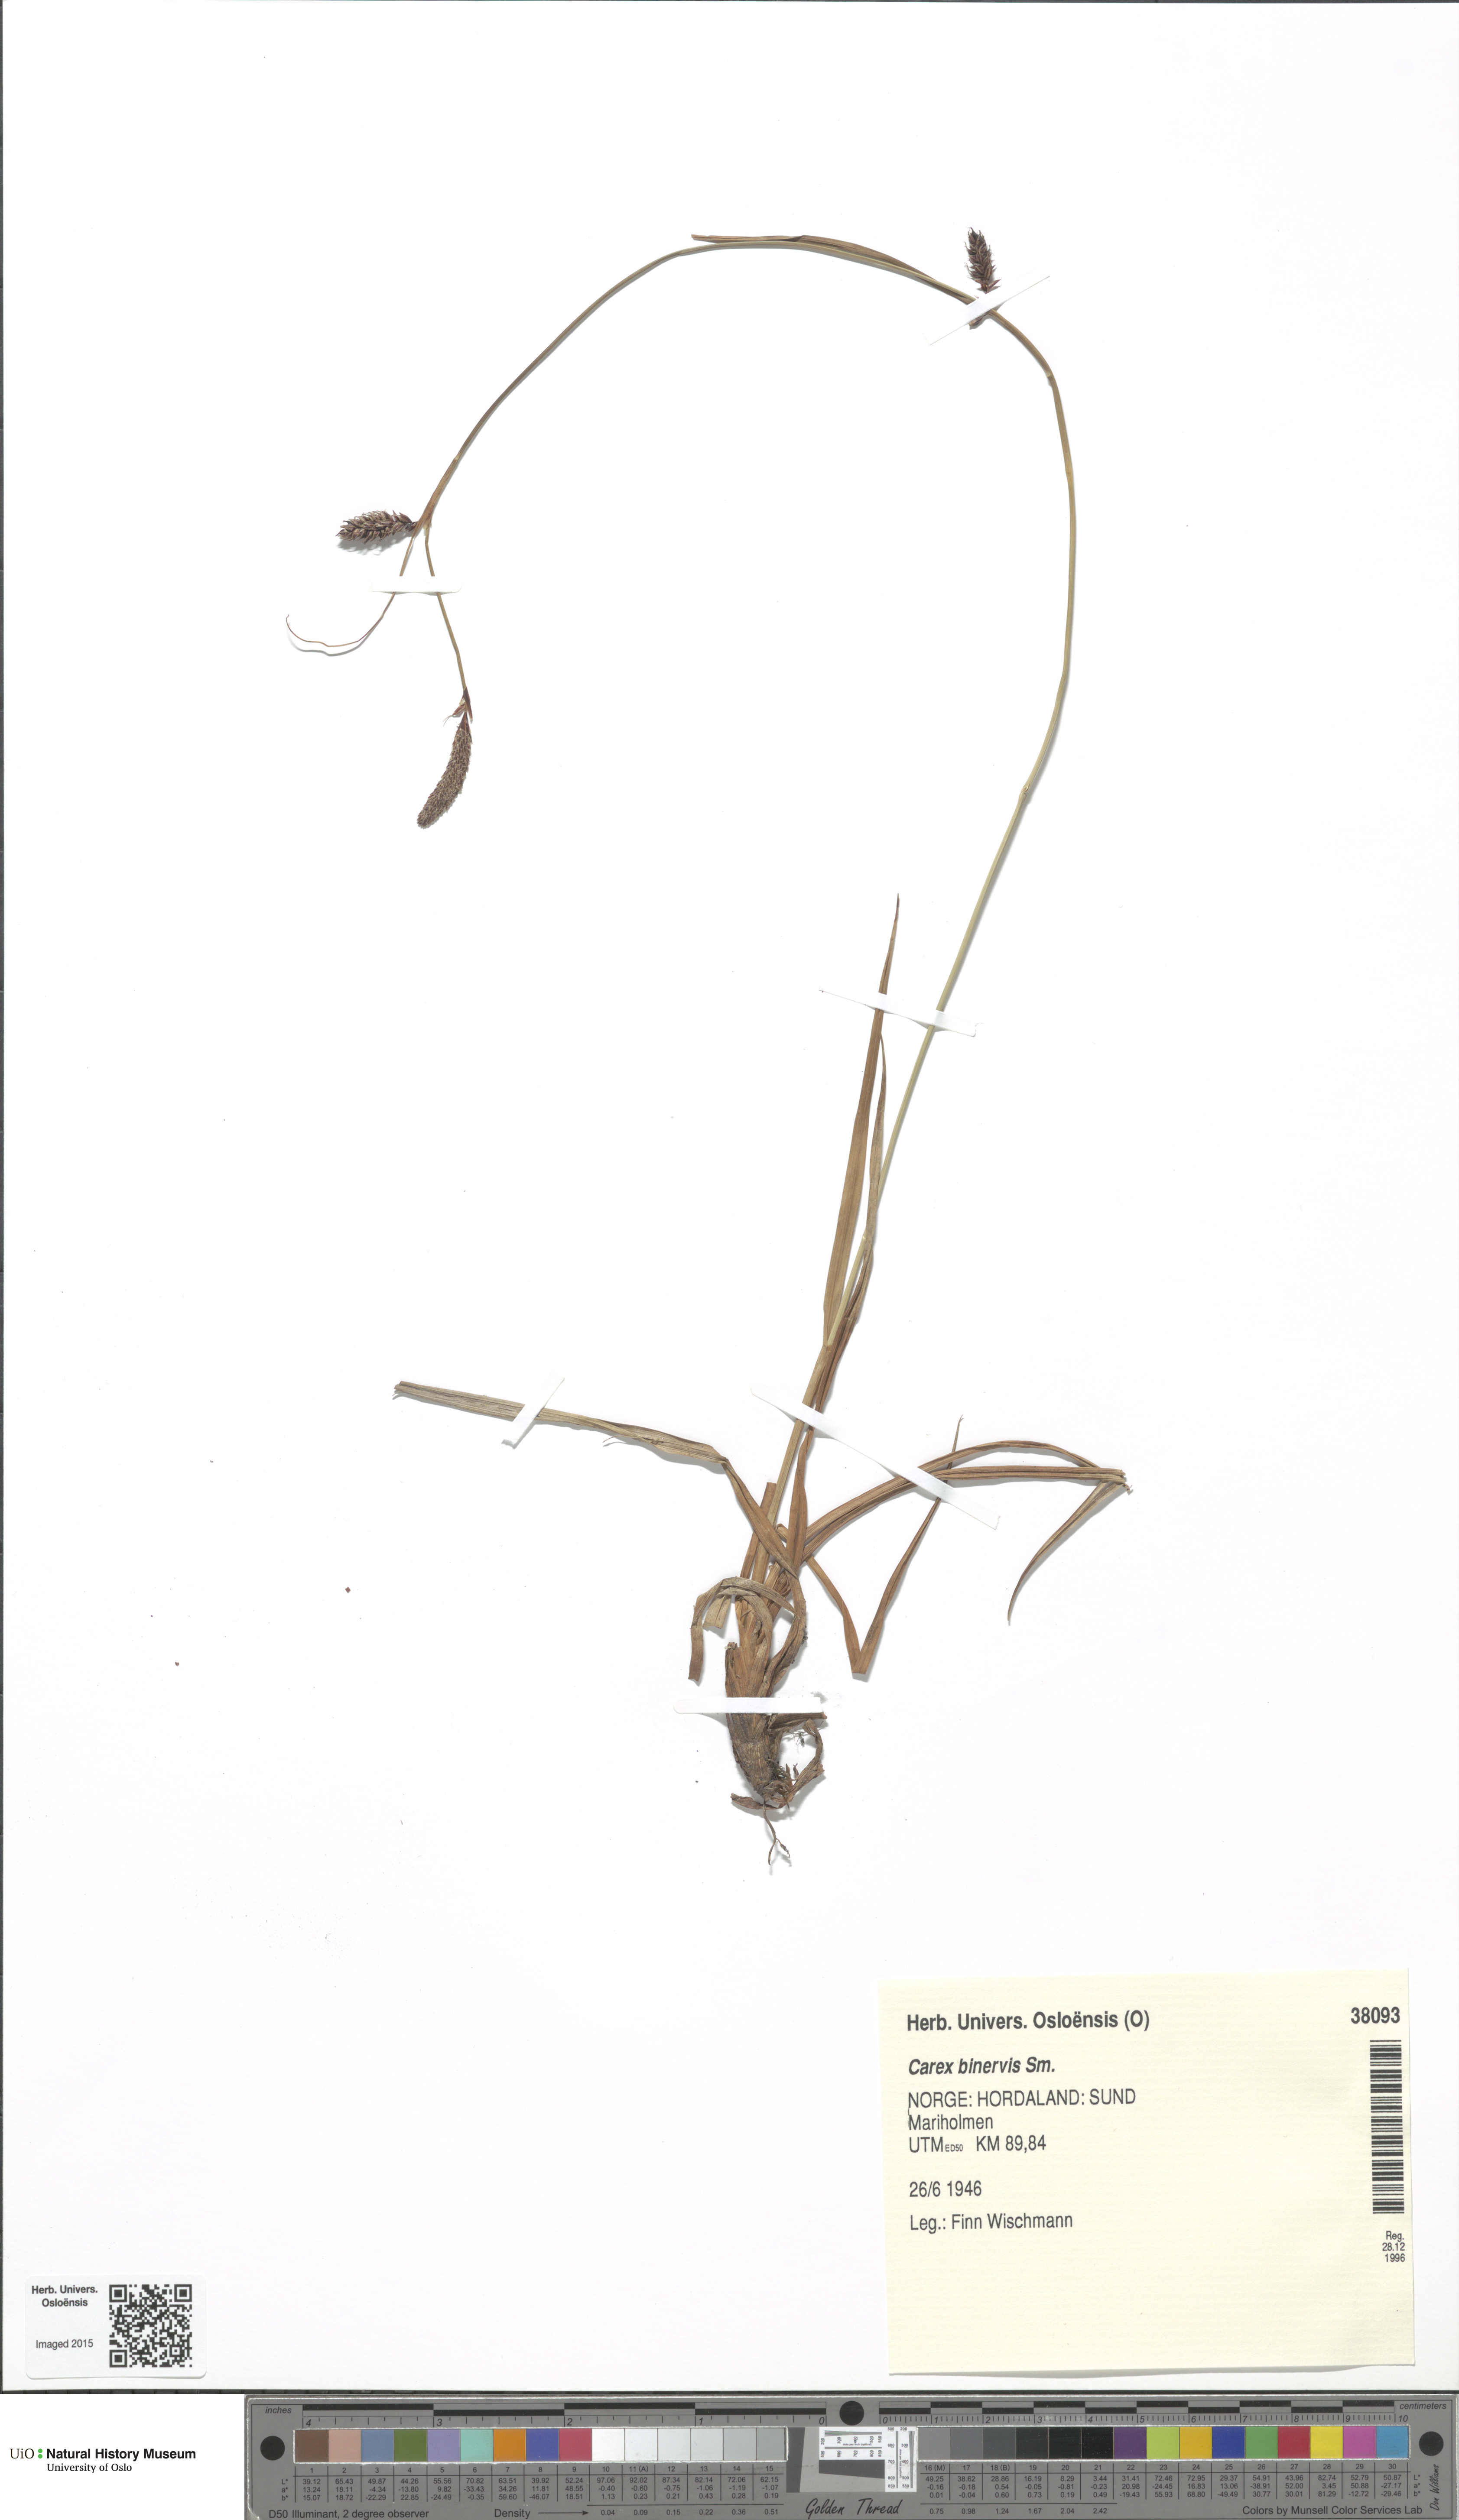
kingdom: Plantae
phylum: Tracheophyta
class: Liliopsida
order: Poales
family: Cyperaceae
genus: Carex
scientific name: Carex binervis
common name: Green-ribbed sedge
